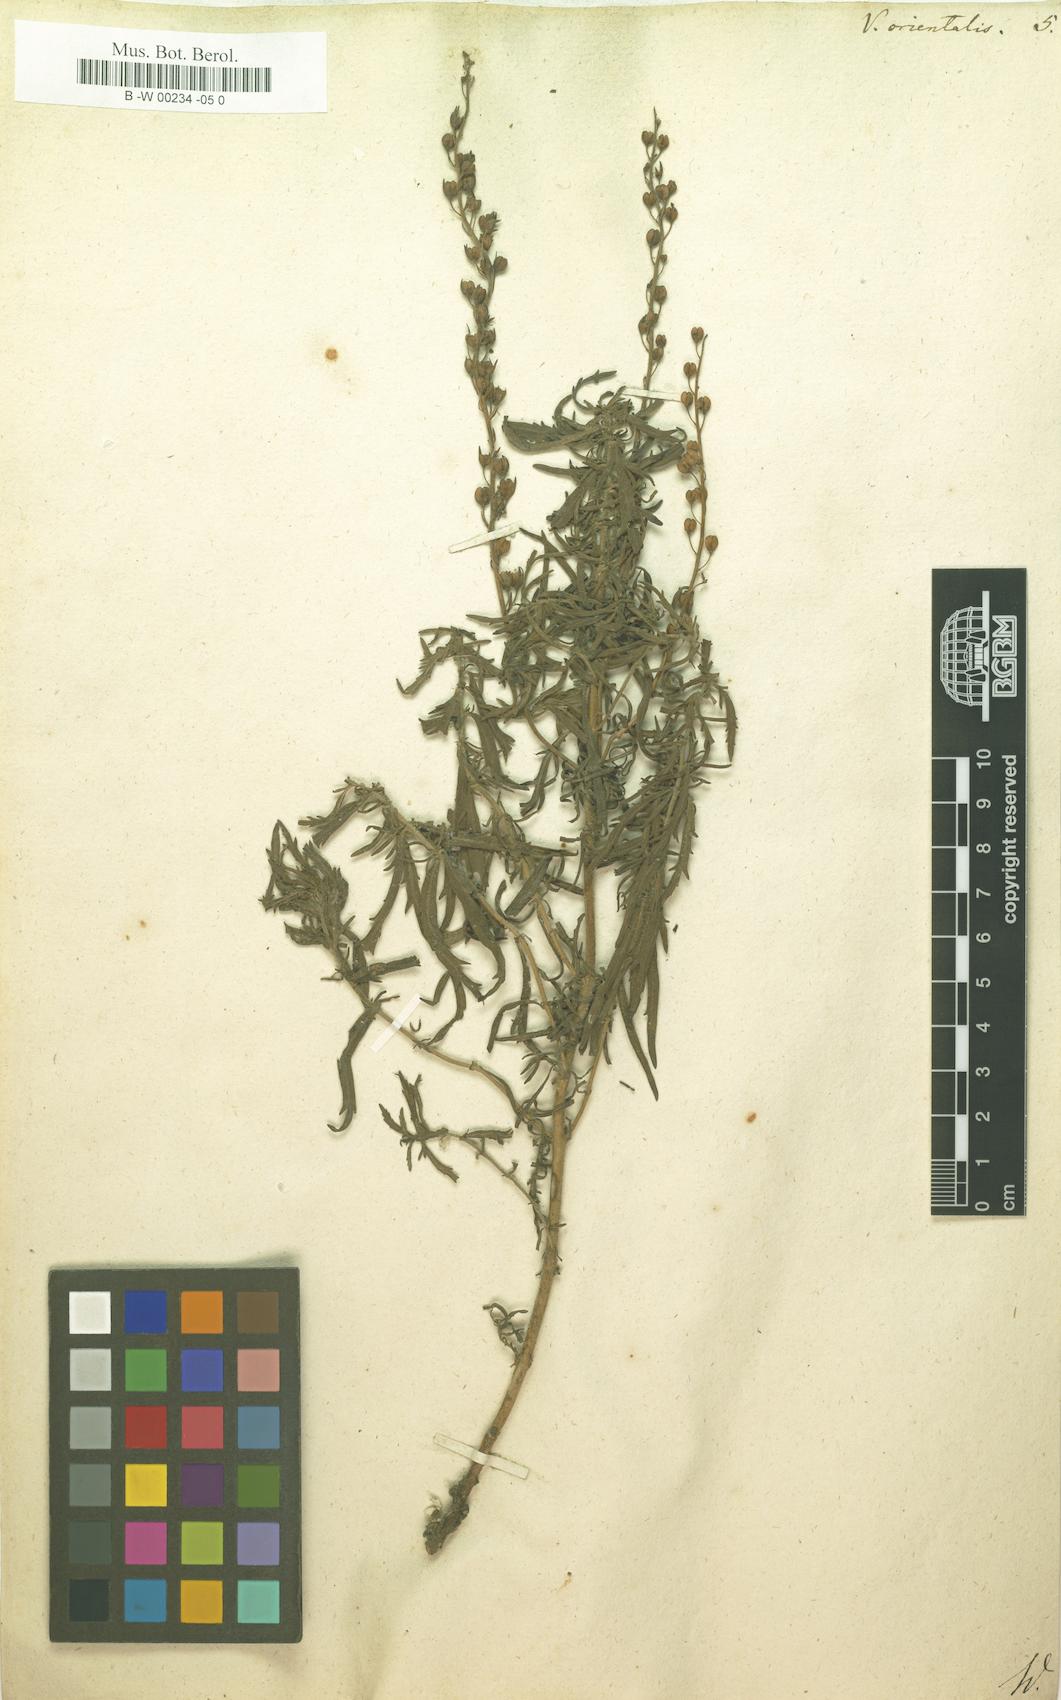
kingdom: Plantae
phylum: Tracheophyta
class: Magnoliopsida
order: Lamiales
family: Plantaginaceae
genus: Veronica
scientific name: Veronica orientalis
